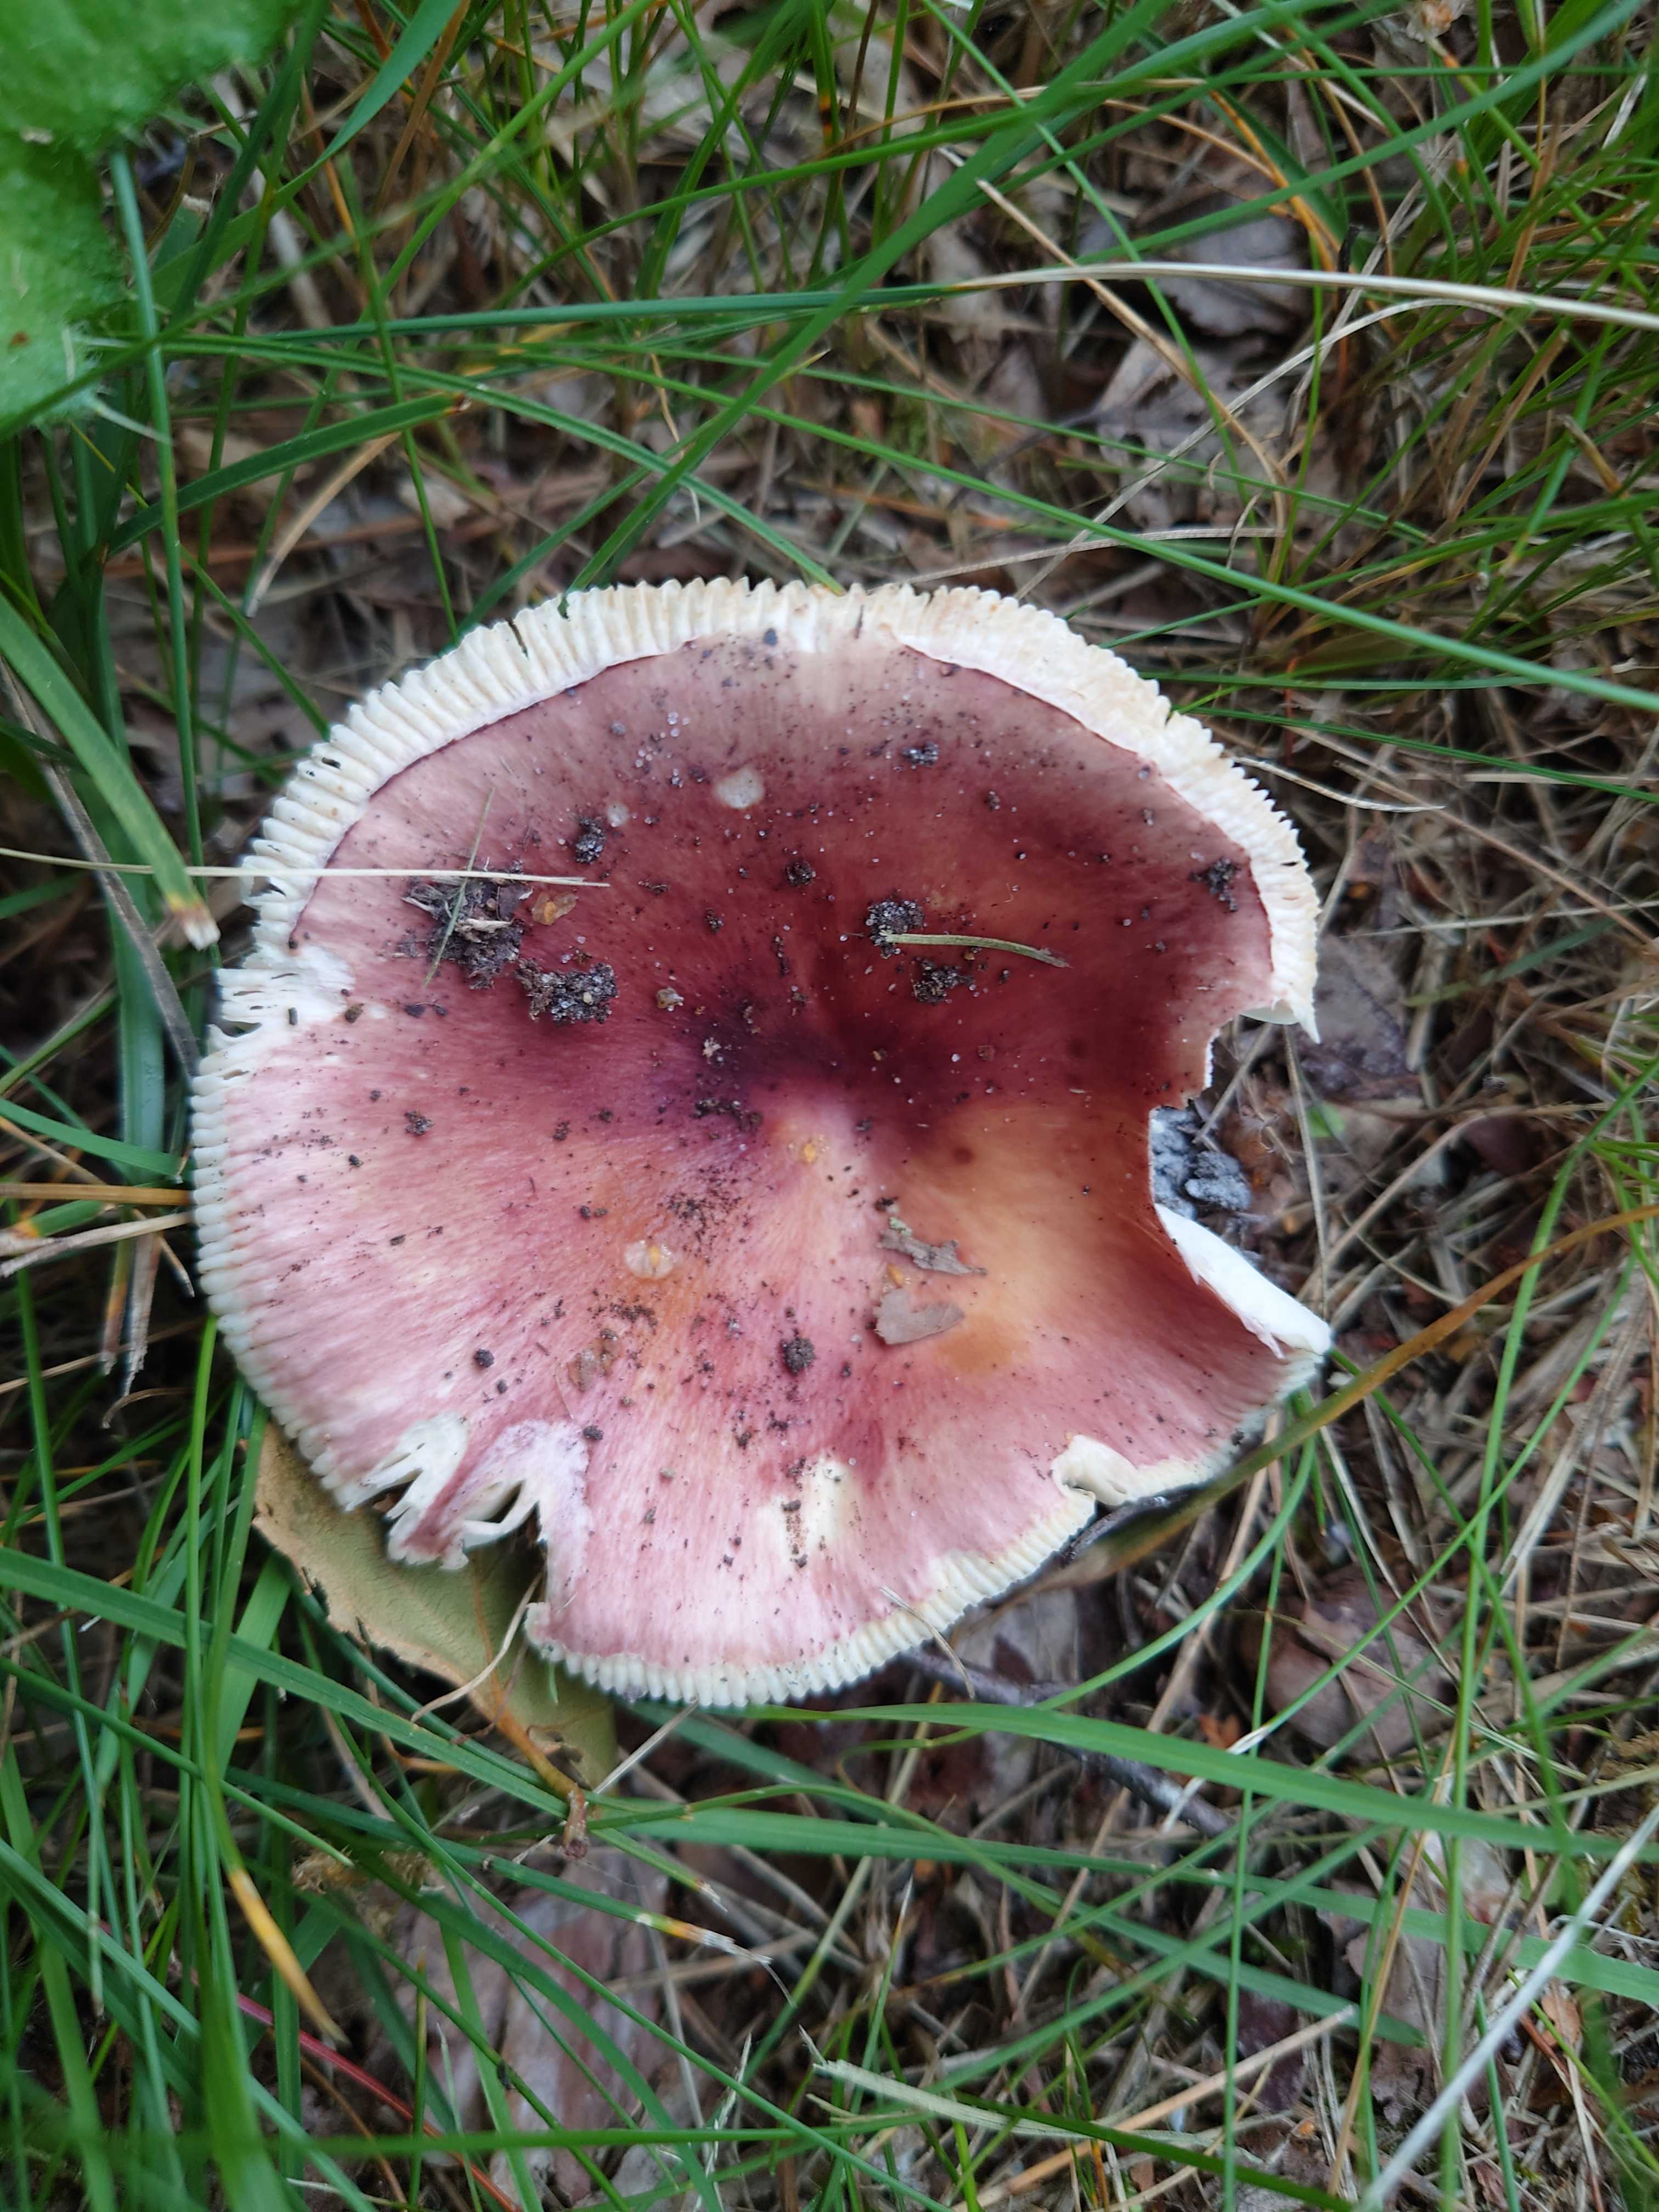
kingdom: Fungi
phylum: Basidiomycota
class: Agaricomycetes
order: Russulales
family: Russulaceae
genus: Russula
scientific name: Russula vesca
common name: spiselig skørhat
